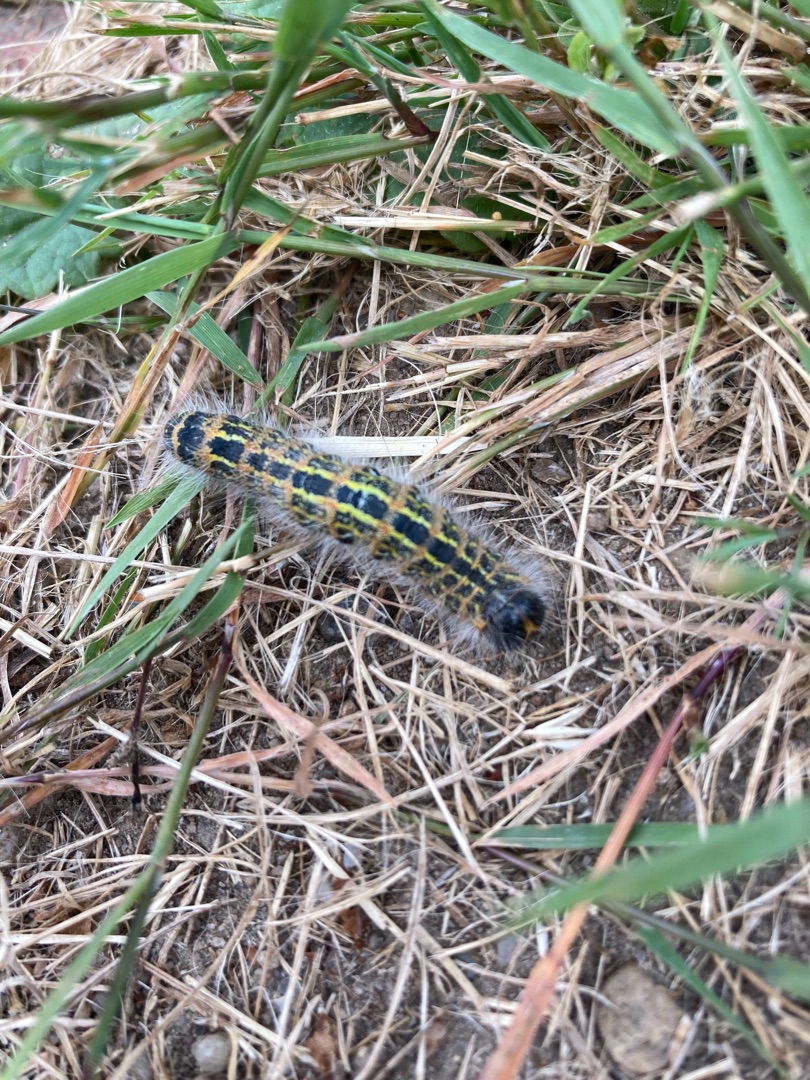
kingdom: Animalia
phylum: Arthropoda
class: Insecta
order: Lepidoptera
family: Notodontidae
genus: Phalera
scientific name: Phalera bucephala
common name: Måneplet
